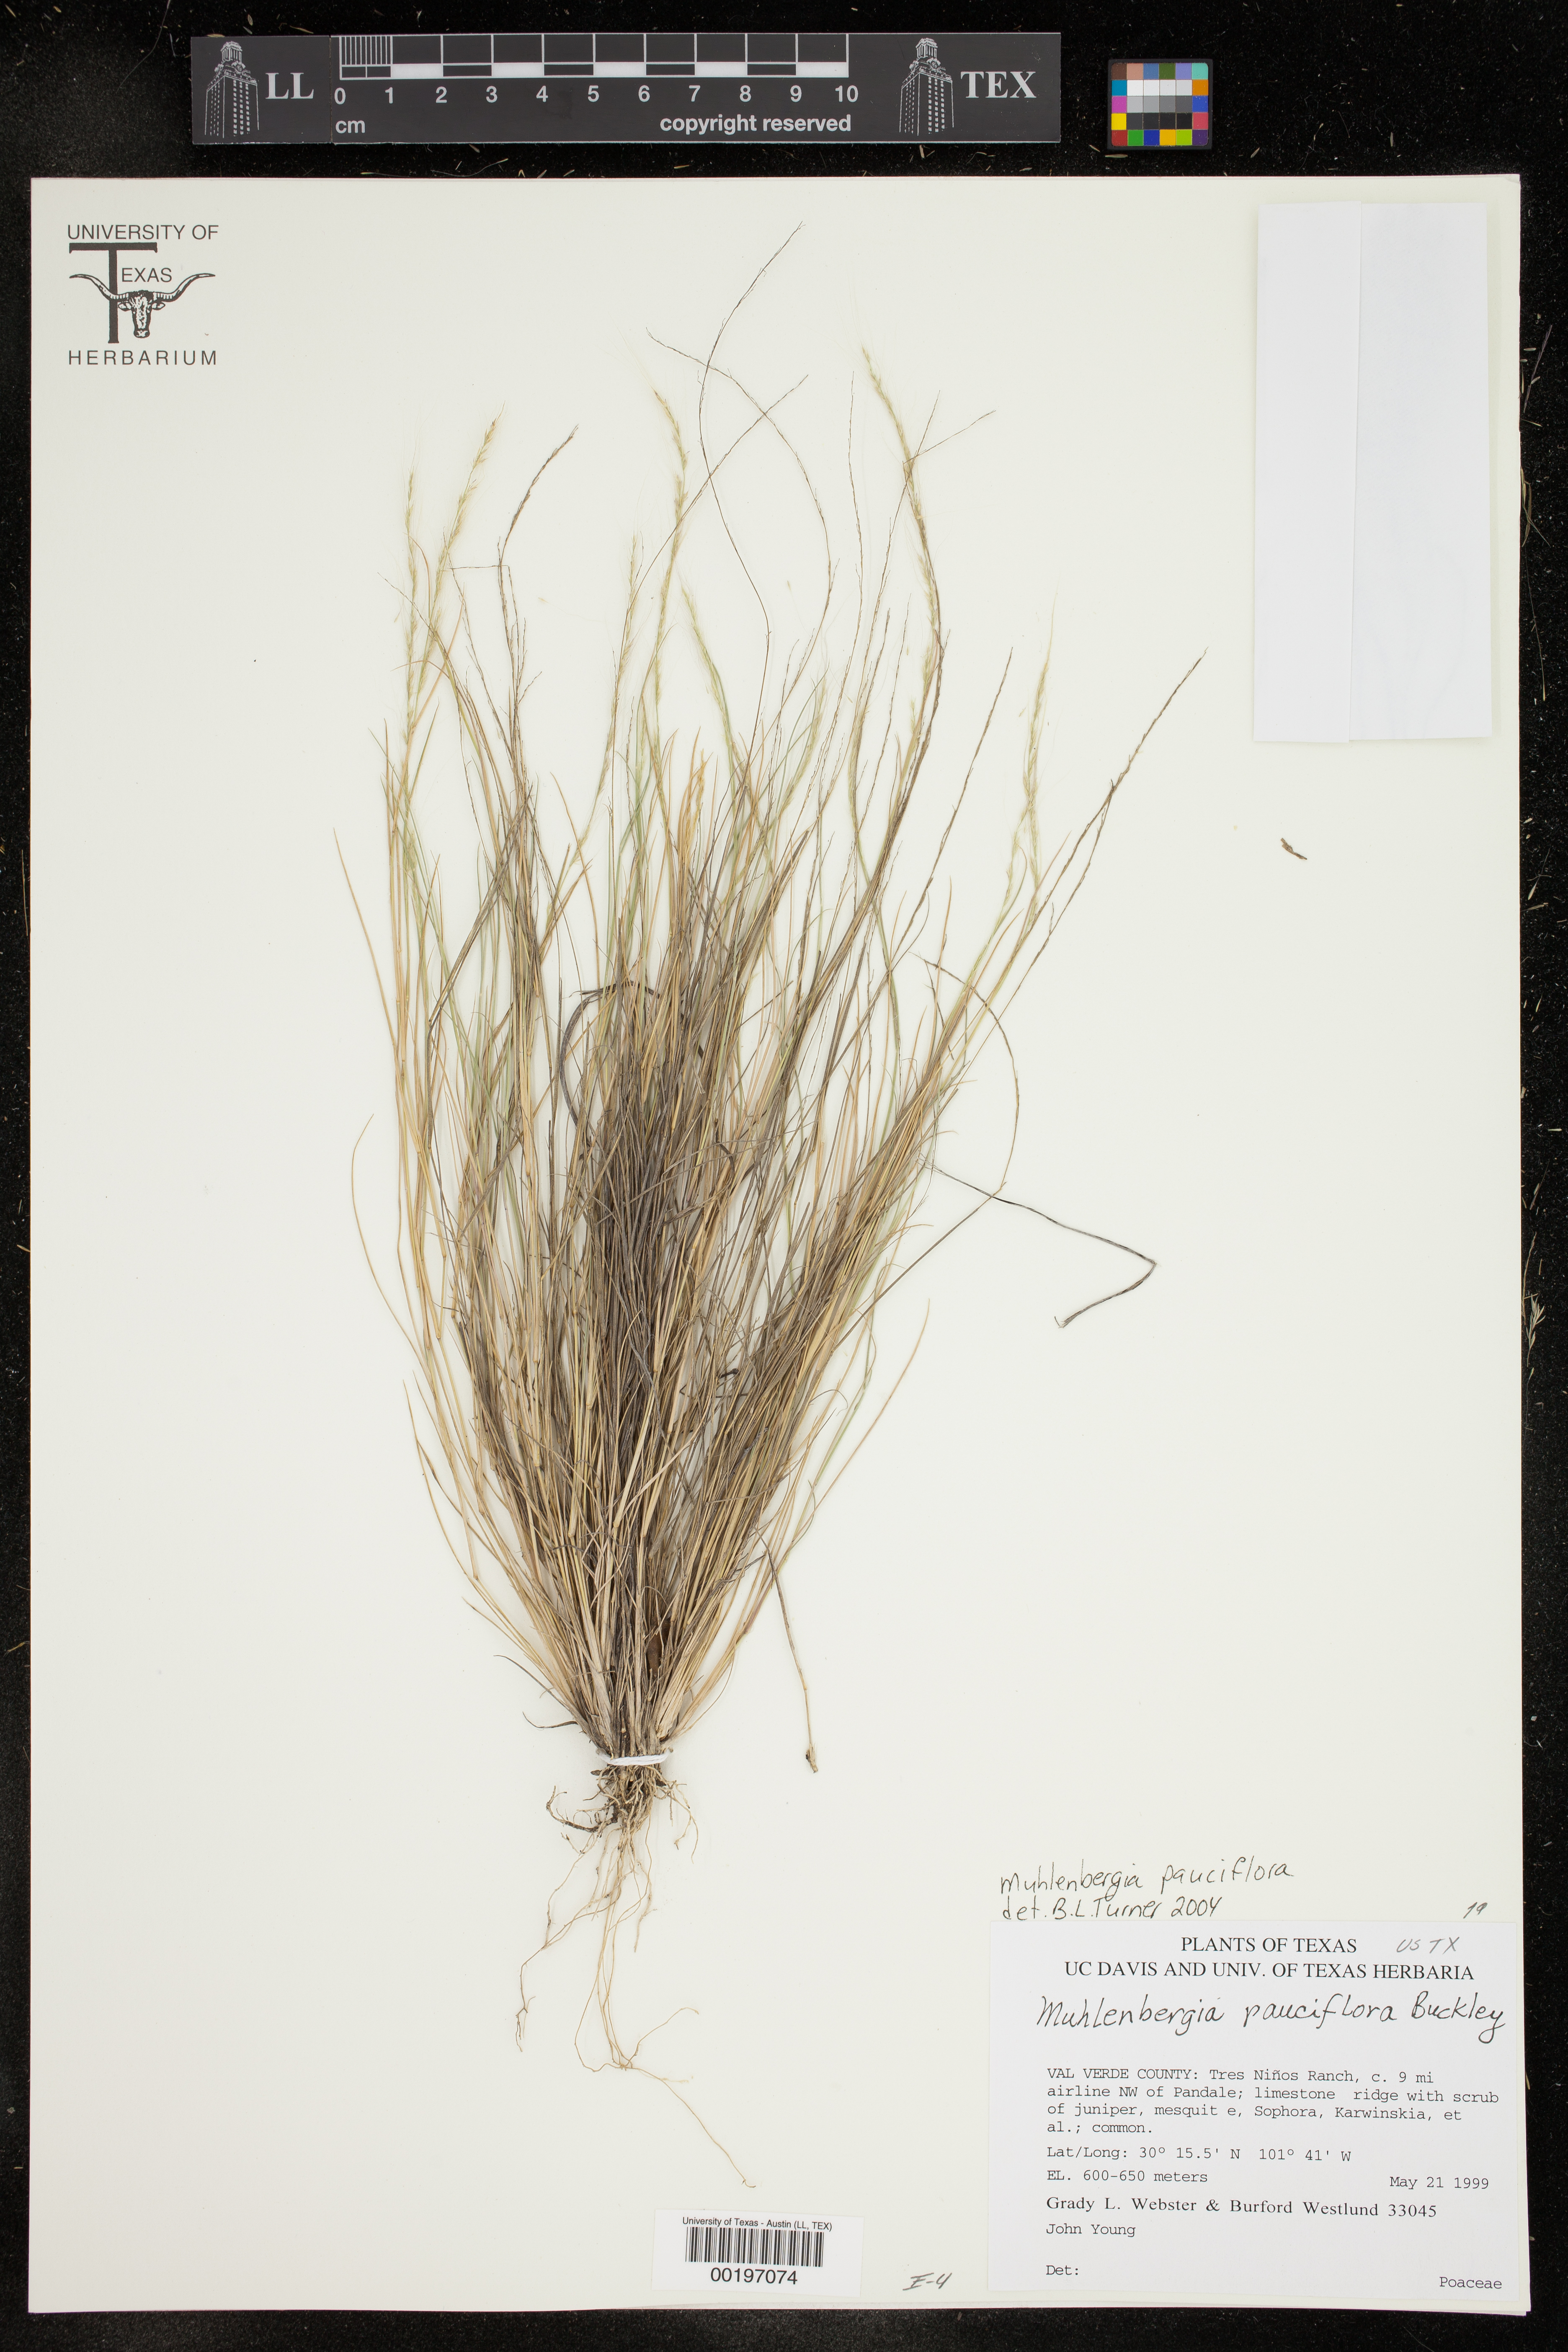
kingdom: Plantae
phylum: Tracheophyta
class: Liliopsida
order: Poales
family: Poaceae
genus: Muhlenbergia
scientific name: Muhlenbergia pauciflora
